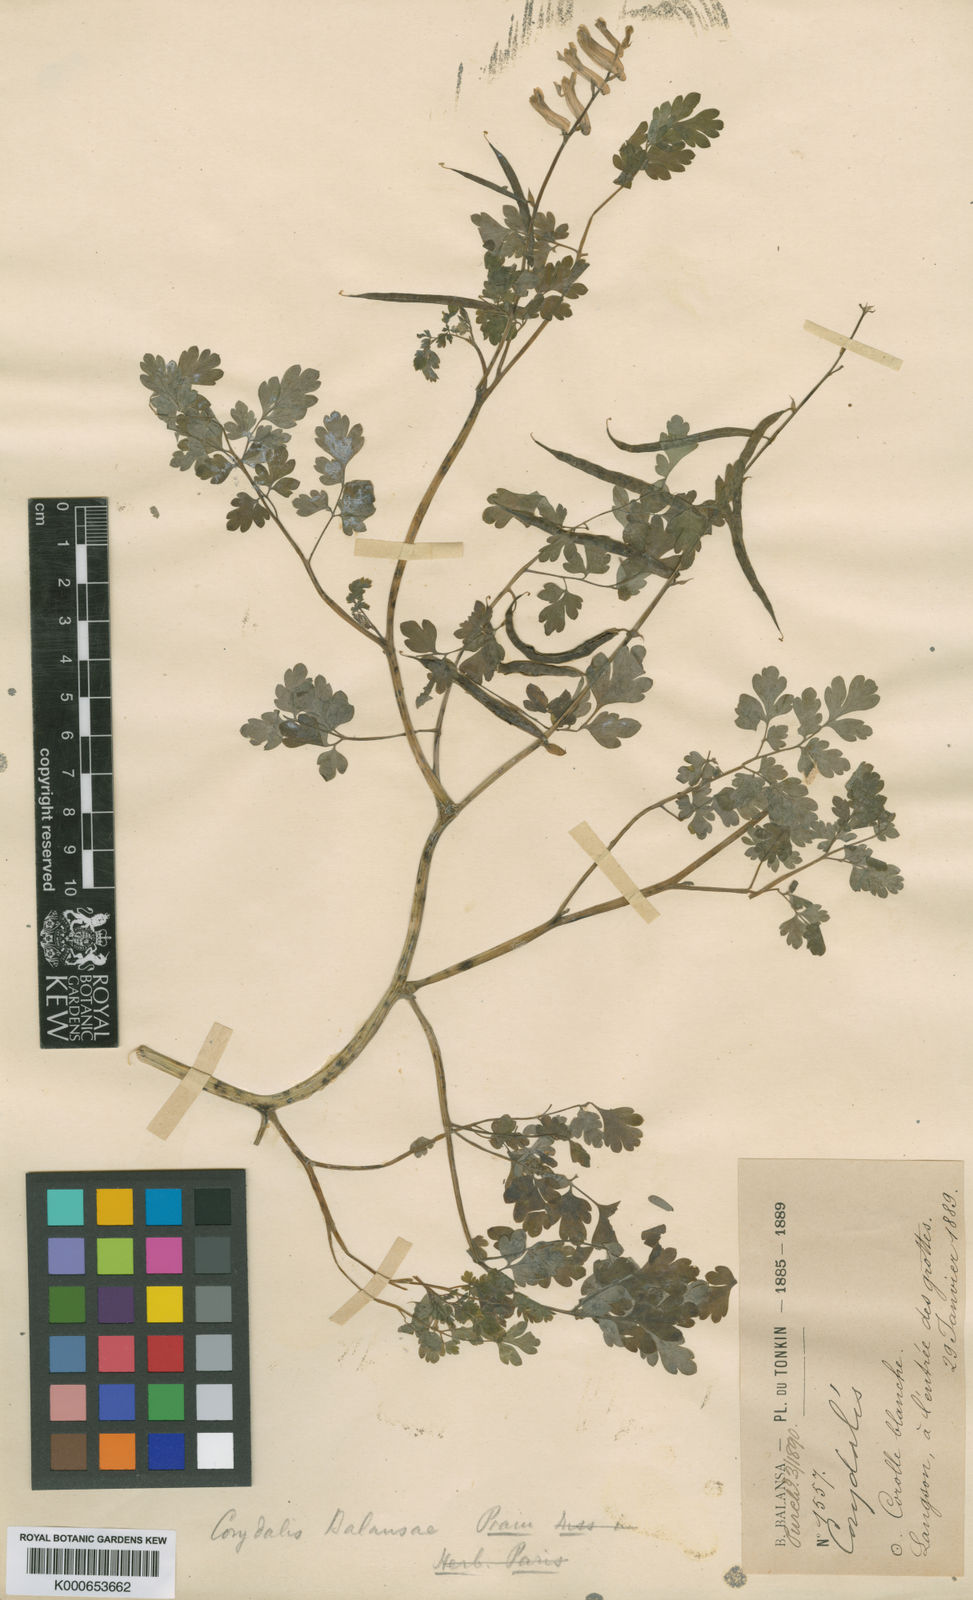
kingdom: Plantae
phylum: Tracheophyta
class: Magnoliopsida
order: Ranunculales
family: Papaveraceae
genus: Corydalis
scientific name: Corydalis balansae
